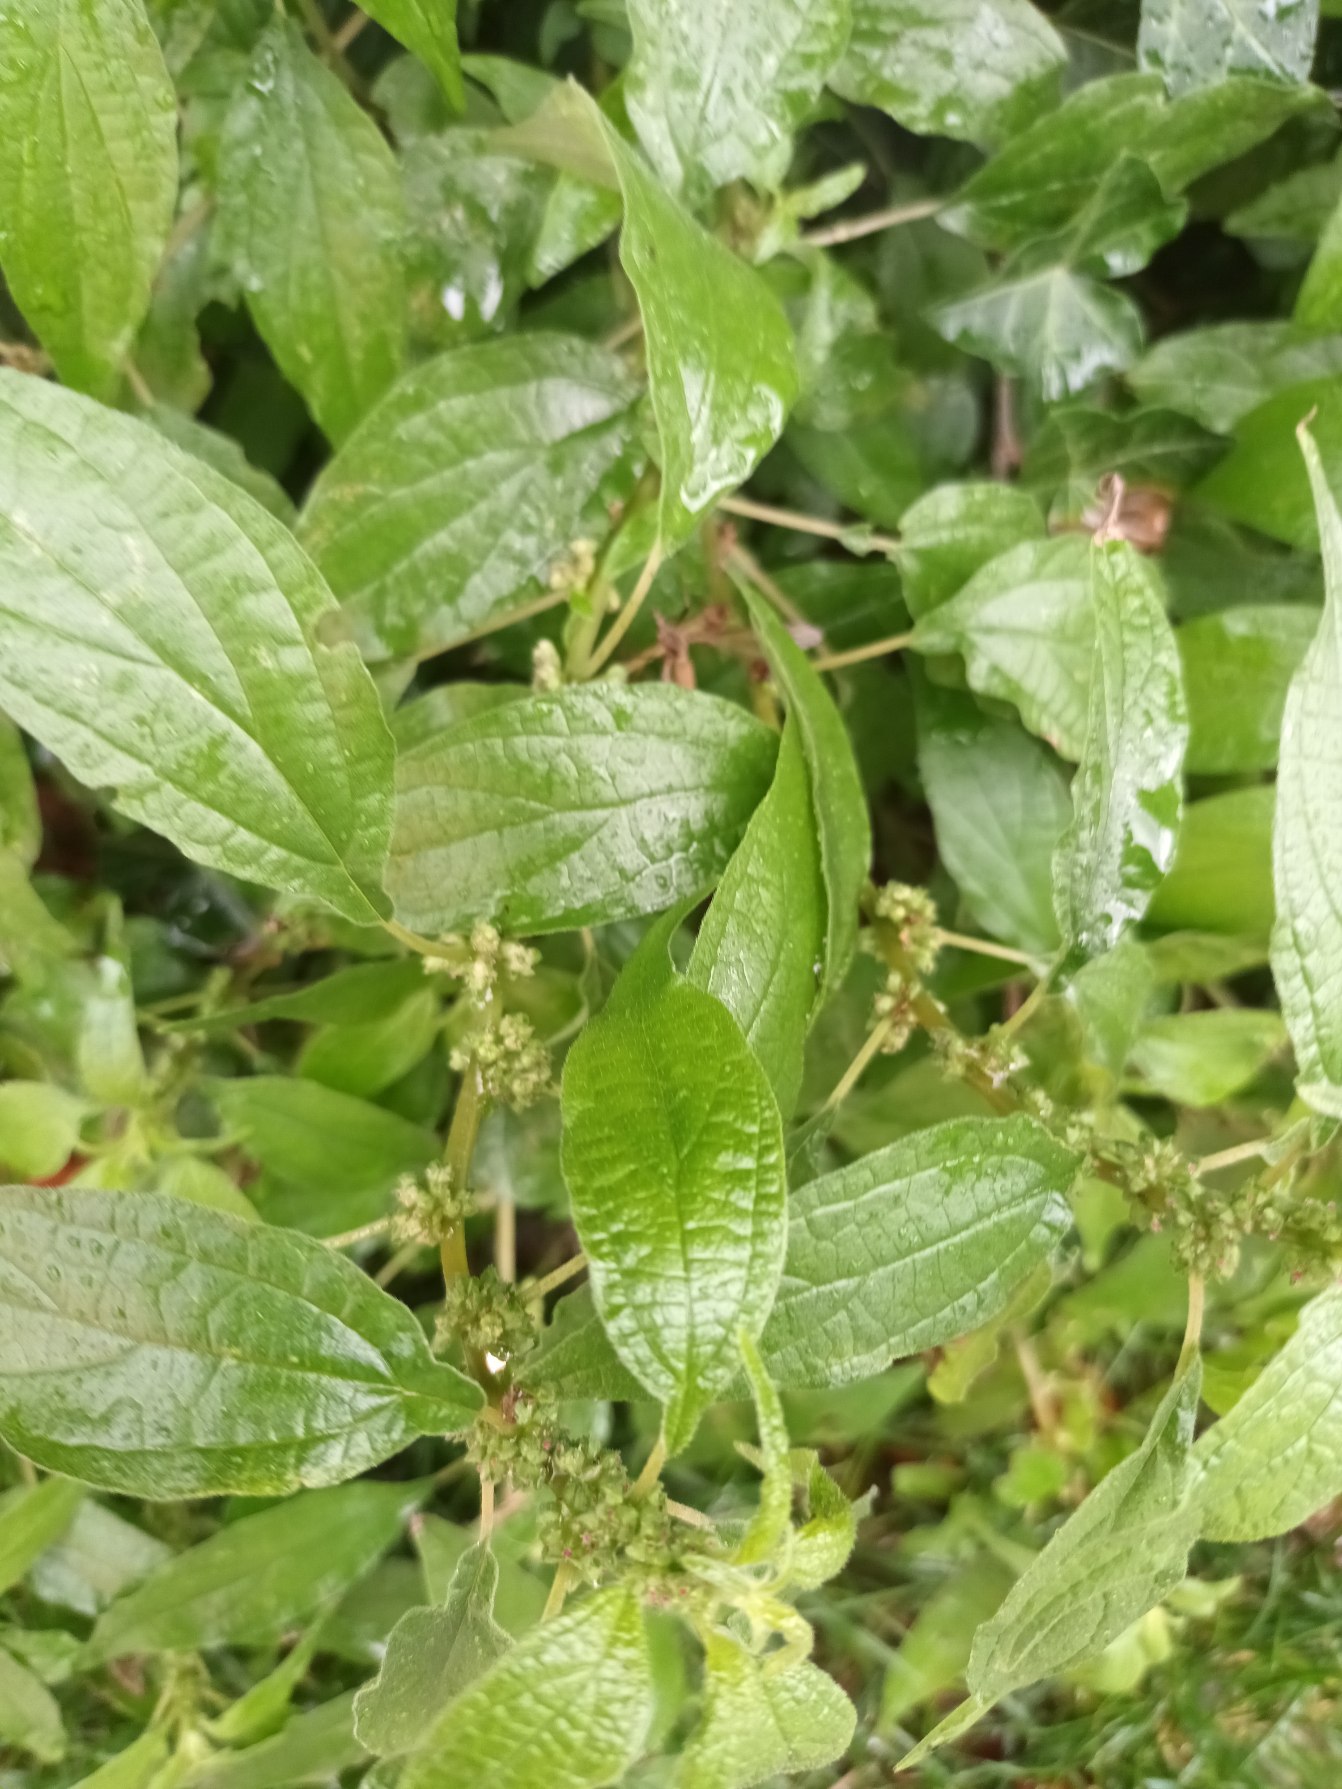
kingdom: Plantae
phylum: Tracheophyta
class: Magnoliopsida
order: Rosales
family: Urticaceae
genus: Parietaria
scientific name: Parietaria officinalis
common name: Almindelig springknap
